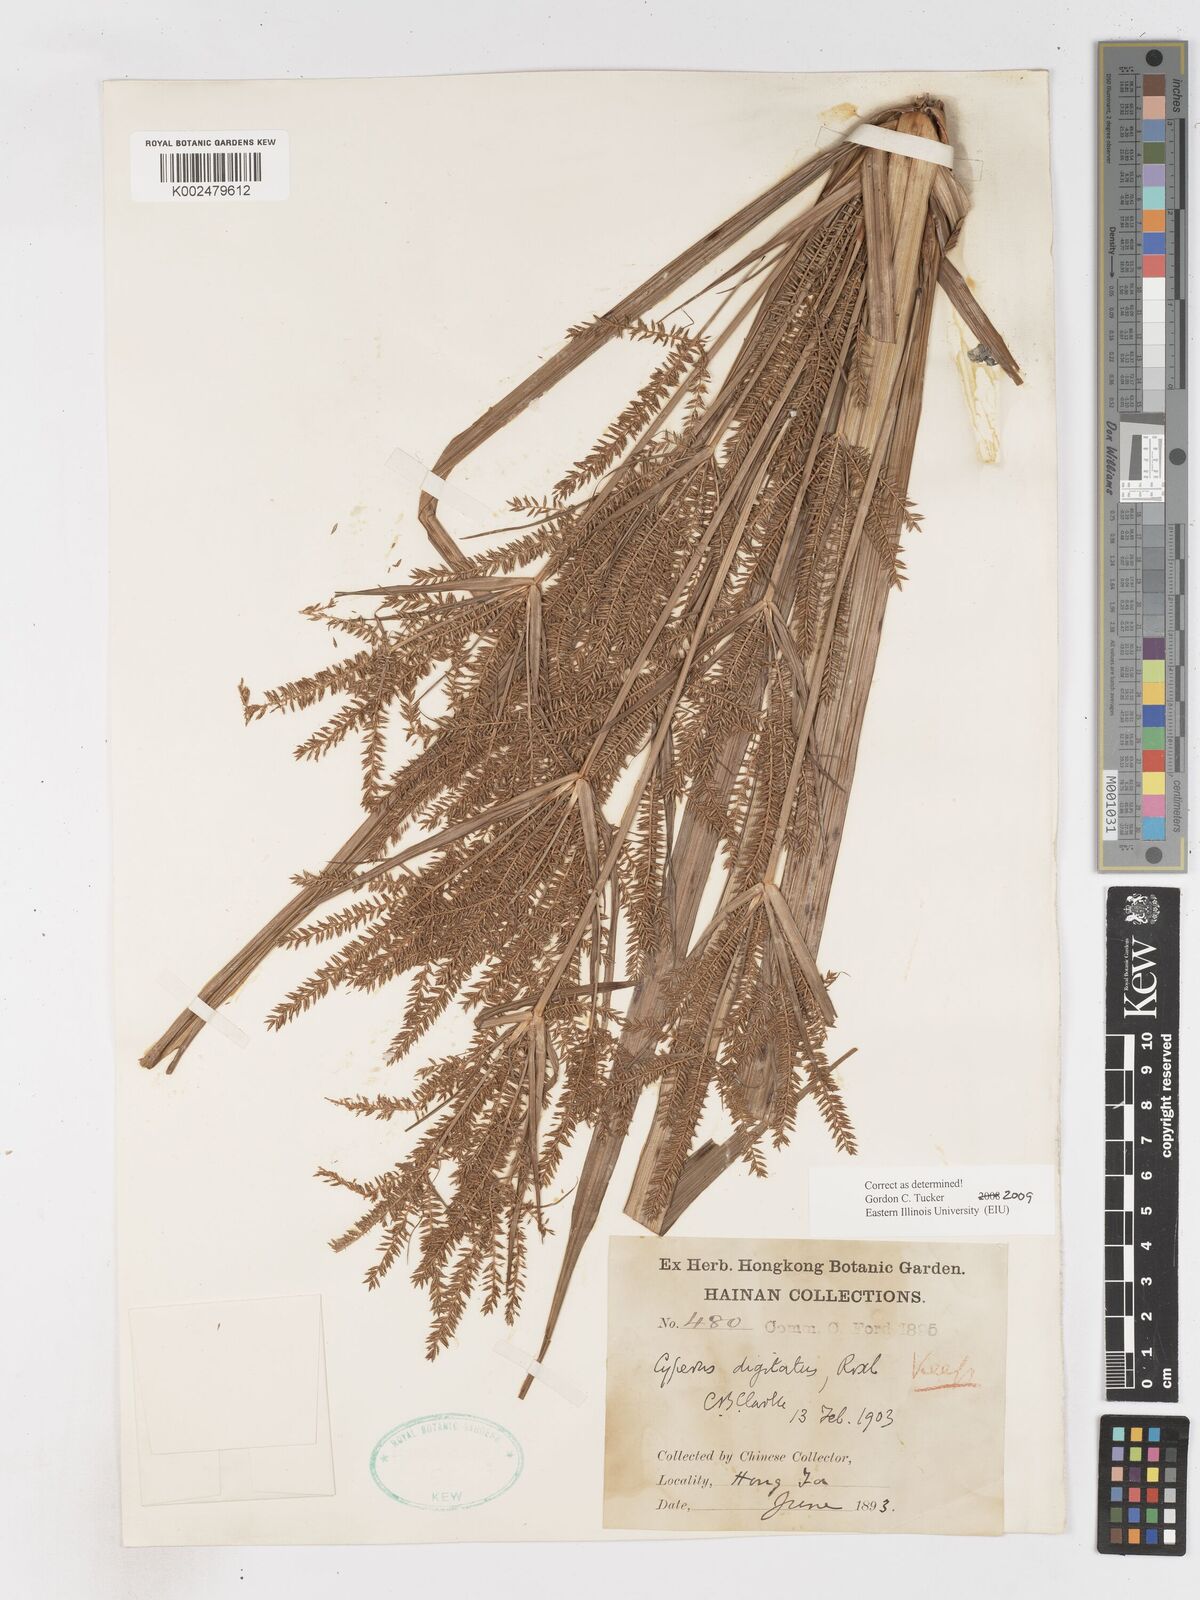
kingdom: Plantae
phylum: Tracheophyta
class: Liliopsida
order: Poales
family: Cyperaceae
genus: Cyperus
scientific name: Cyperus digitatus
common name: Finger flatsedge
